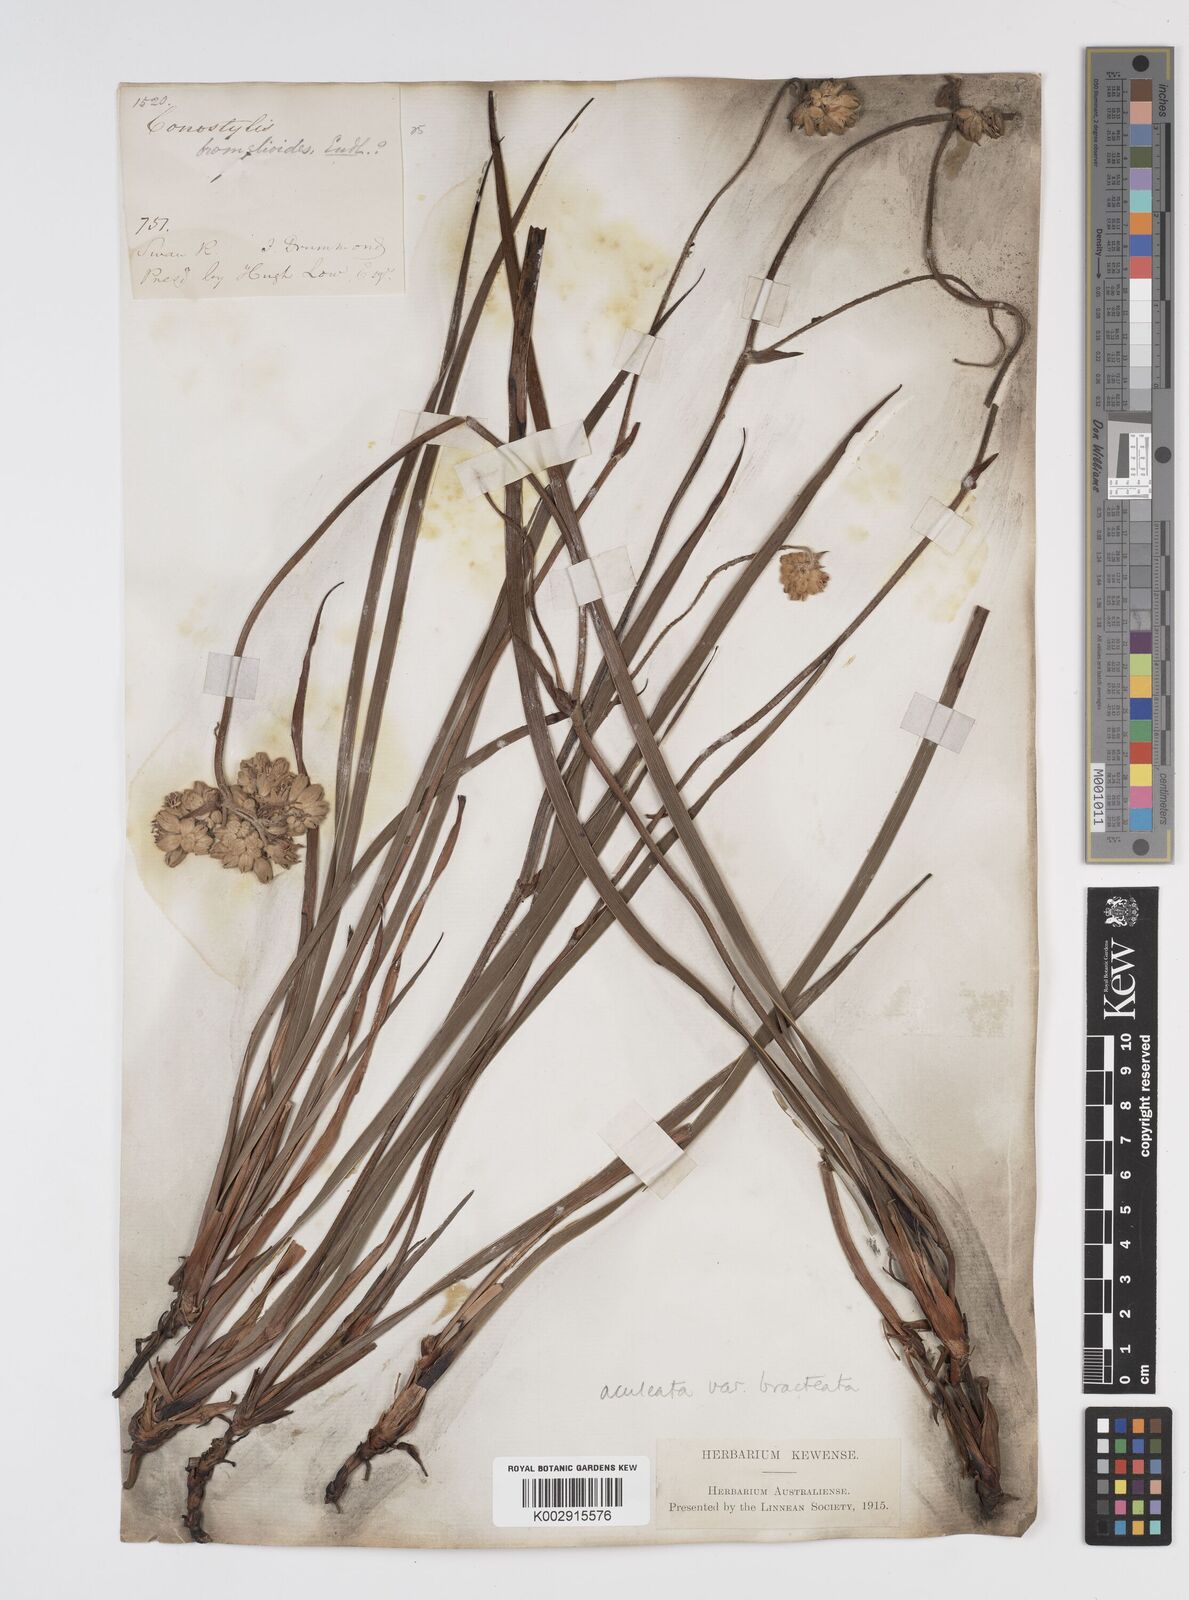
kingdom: Plantae
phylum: Tracheophyta
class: Liliopsida
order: Commelinales
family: Haemodoraceae
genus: Conostylis
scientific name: Conostylis bracteata
